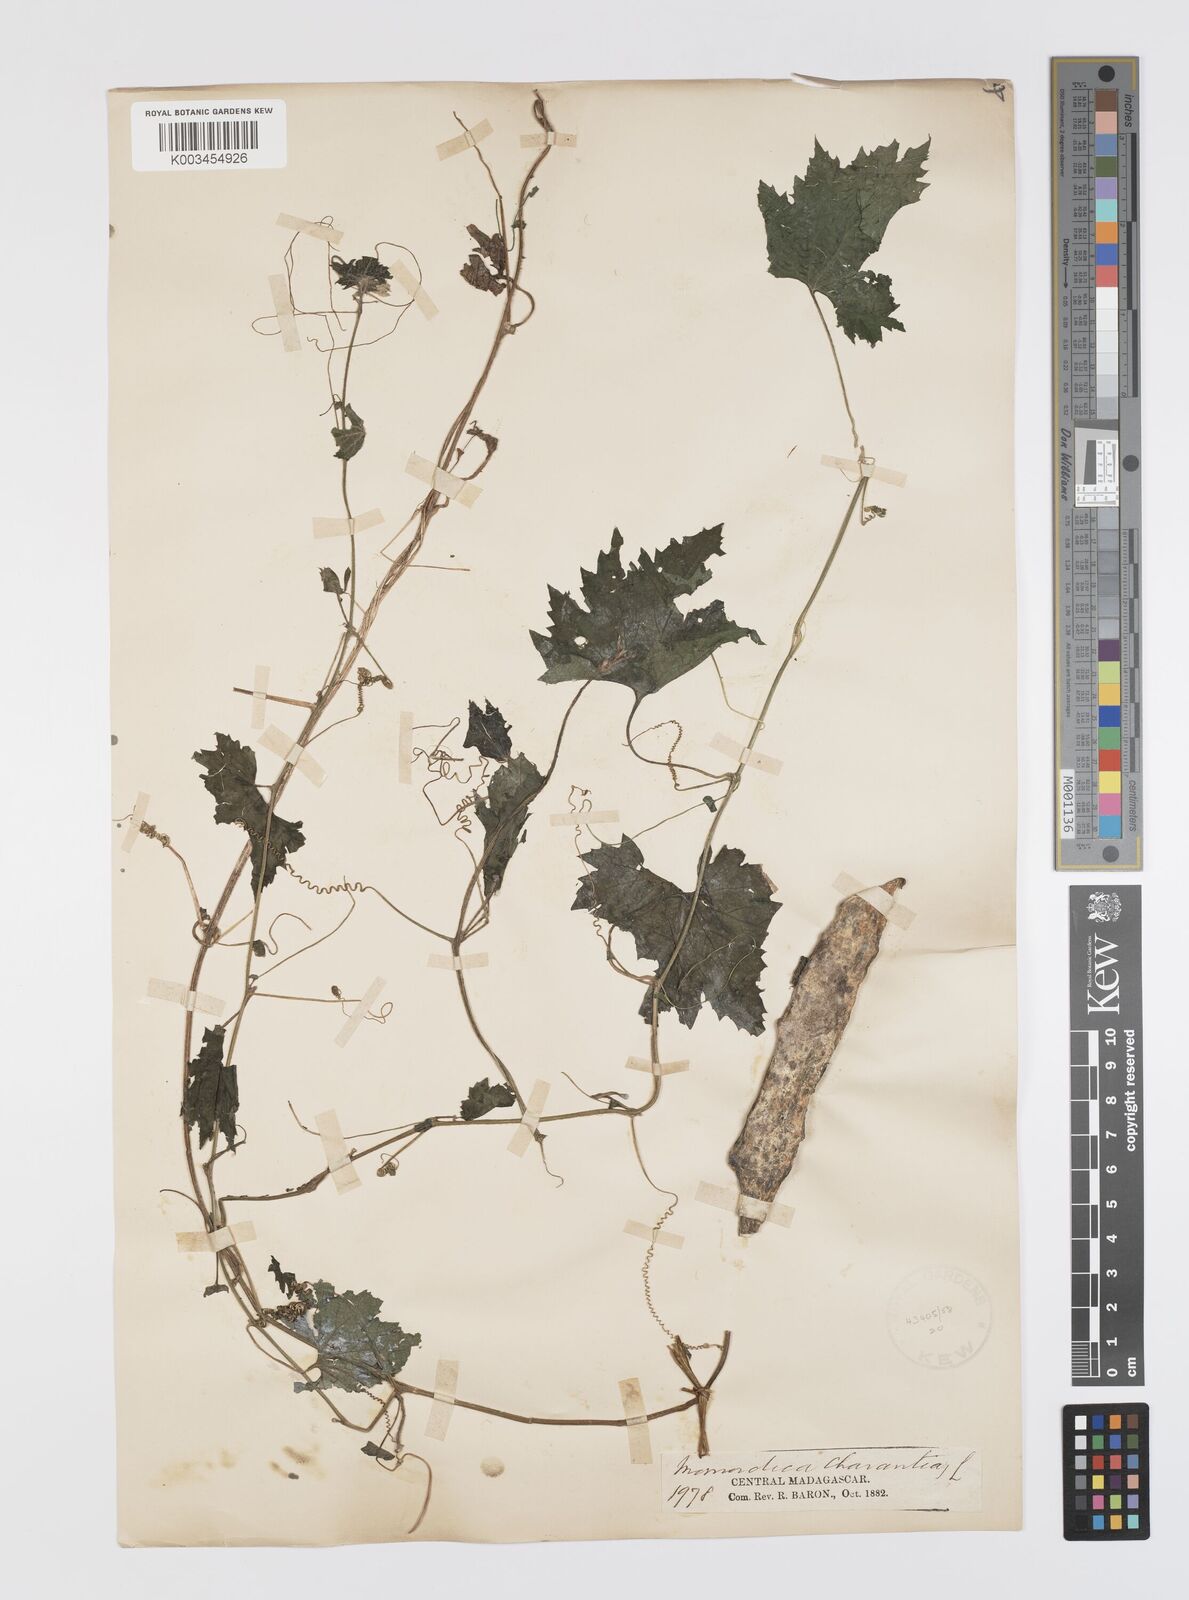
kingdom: Plantae
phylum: Tracheophyta
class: Magnoliopsida
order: Cucurbitales
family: Cucurbitaceae
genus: Momordica
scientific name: Momordica charantia
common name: Balsampear
